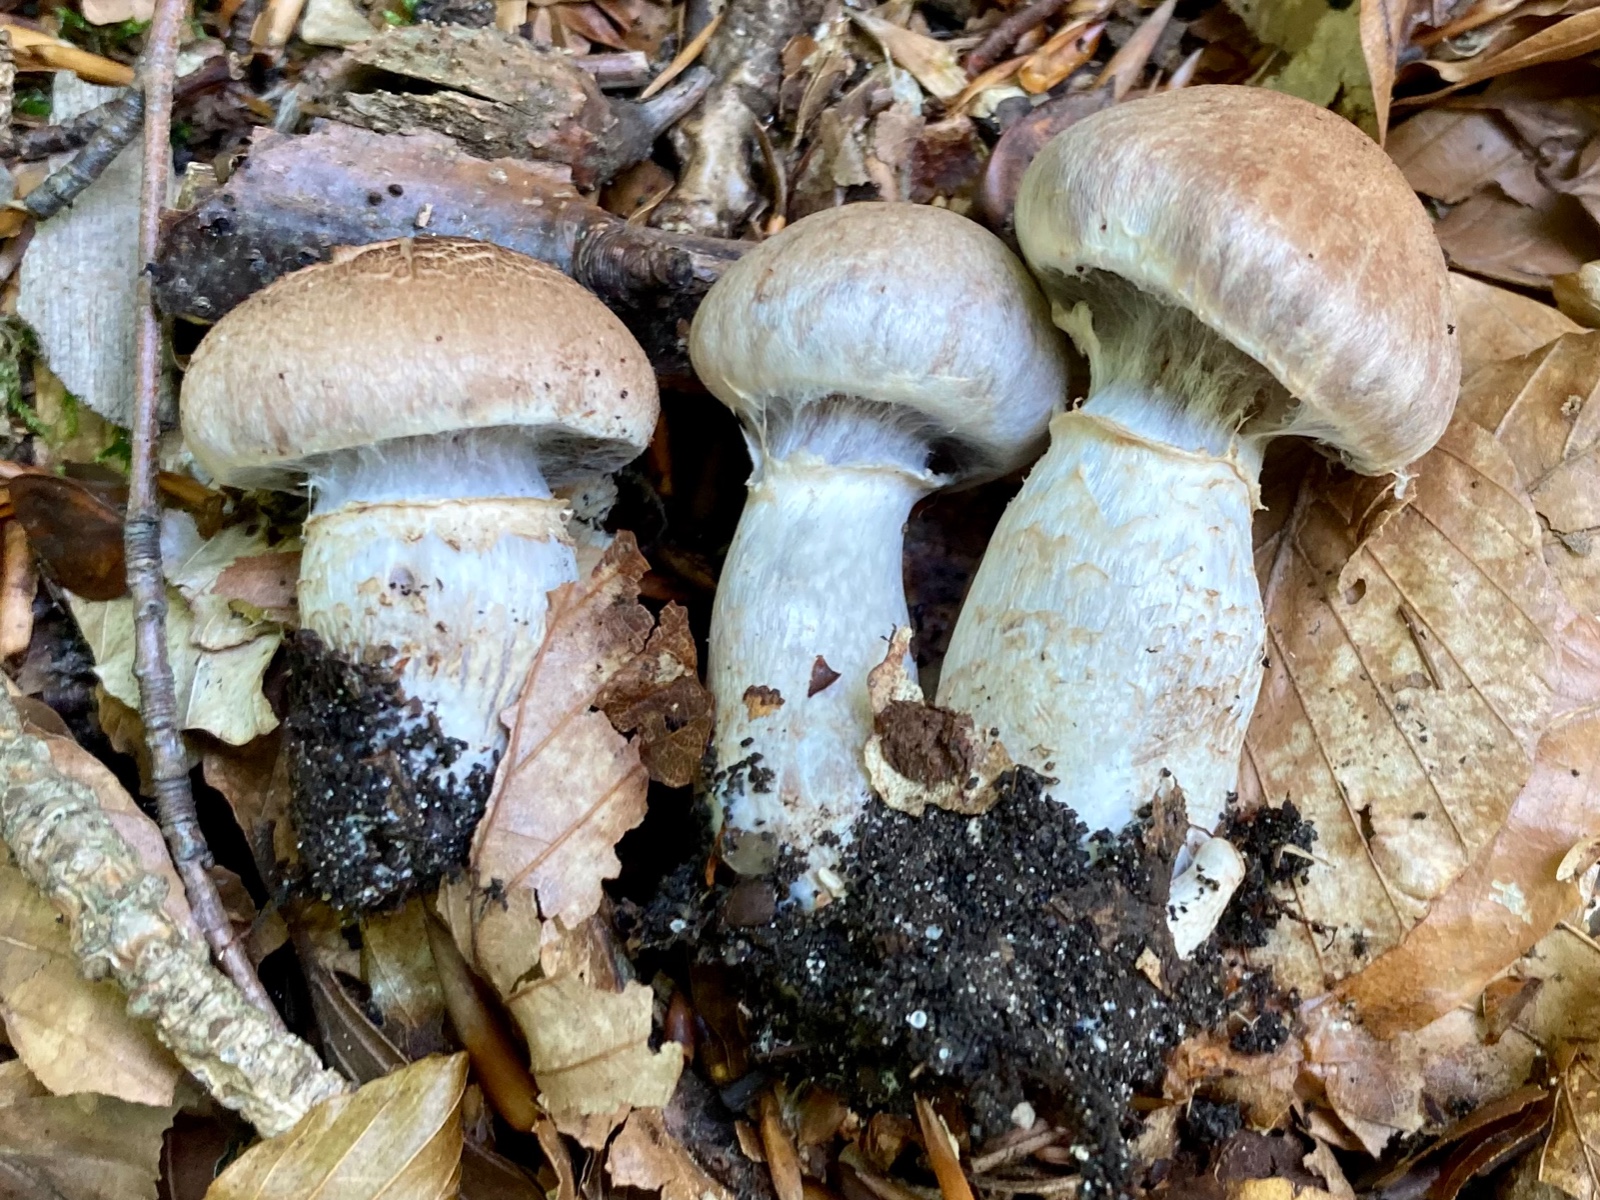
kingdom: Fungi
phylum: Basidiomycota
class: Agaricomycetes
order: Agaricales
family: Cortinariaceae
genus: Cortinarius
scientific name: Cortinarius torvus
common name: champignonagtig slørhat
